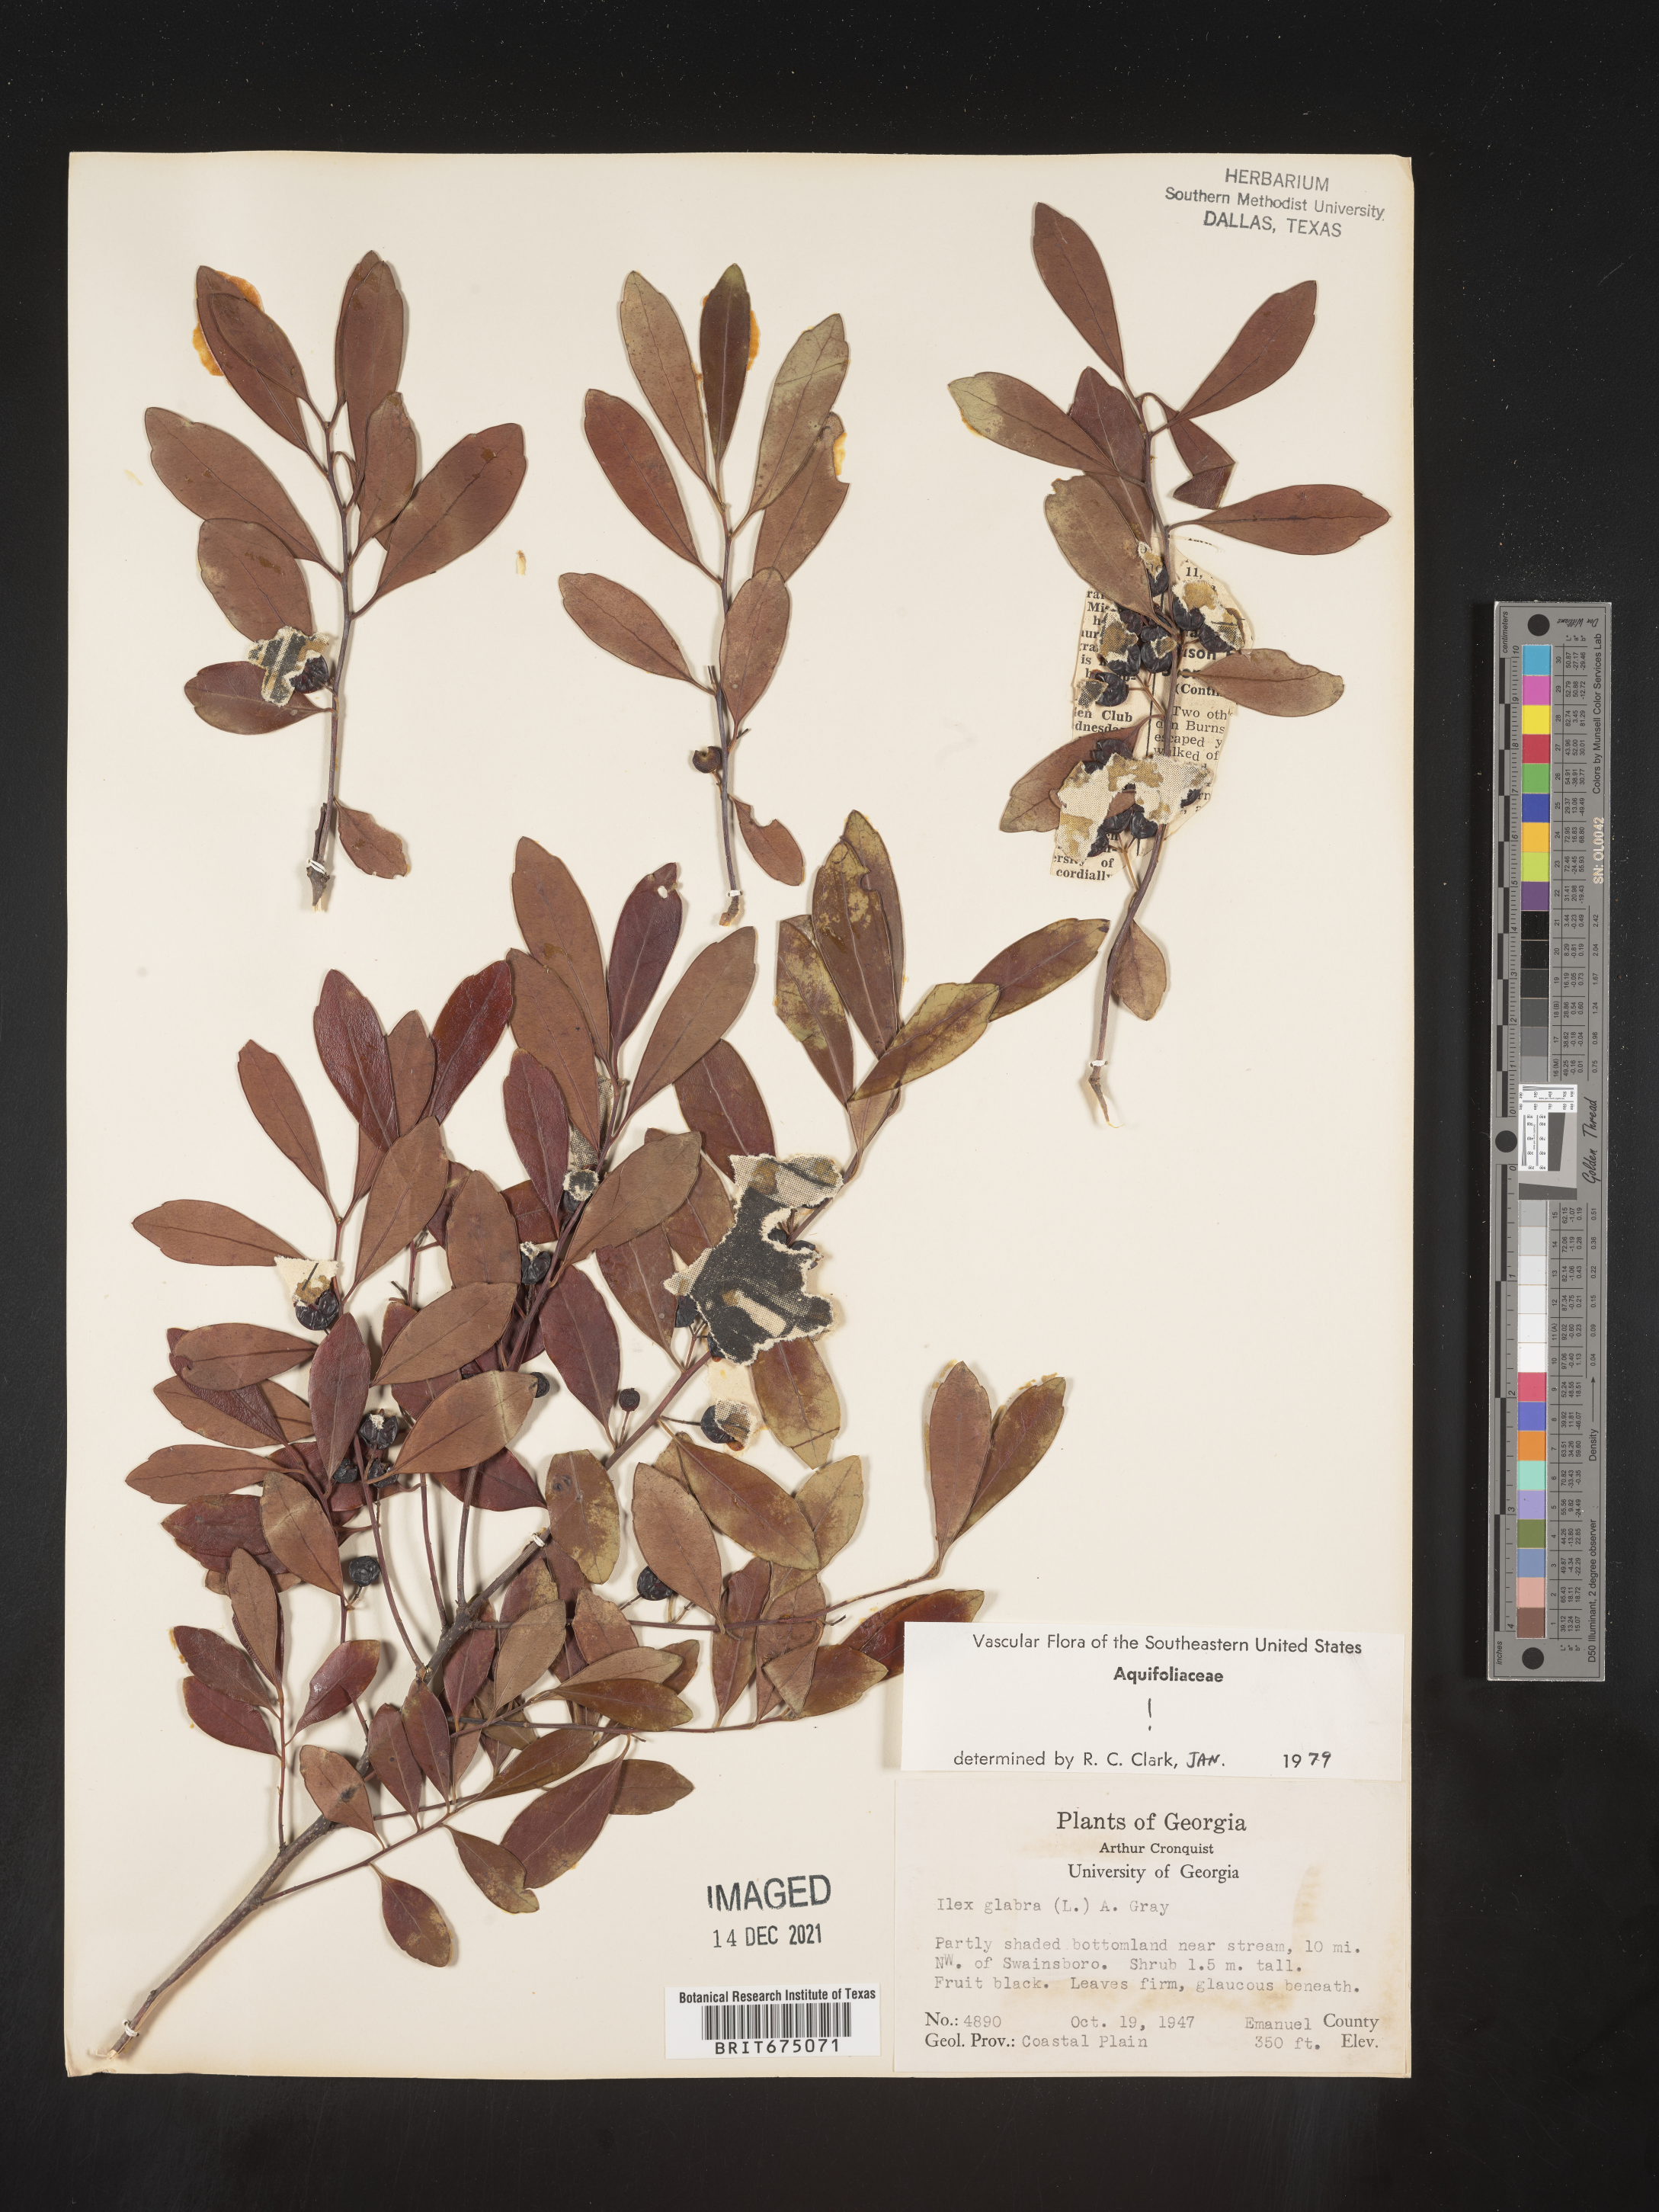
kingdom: Plantae
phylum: Tracheophyta
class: Magnoliopsida
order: Aquifoliales
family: Aquifoliaceae
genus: Ilex
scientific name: Ilex glabra
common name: Bitter gallberry
